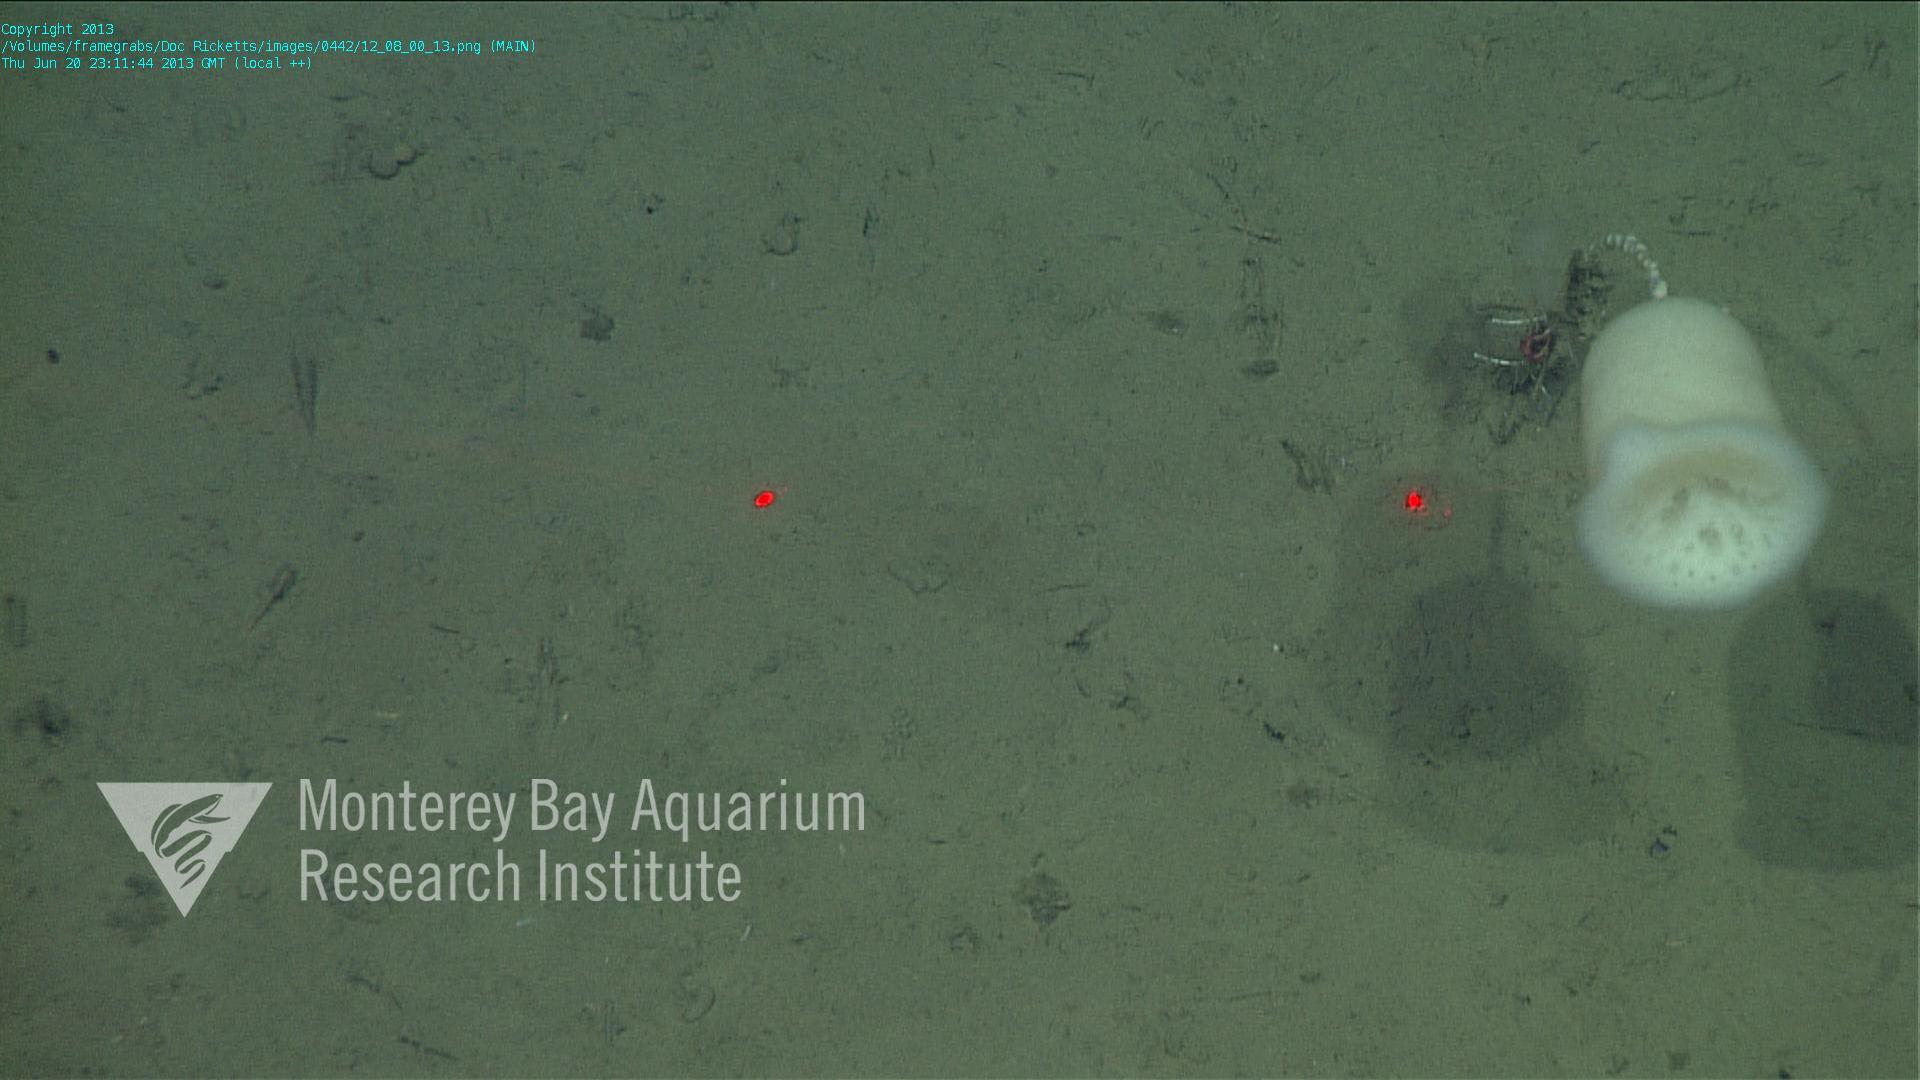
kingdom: Animalia
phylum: Porifera
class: Hexactinellida
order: Amphidiscosida
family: Hyalonematidae
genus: Hyalonema
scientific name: Hyalonema
